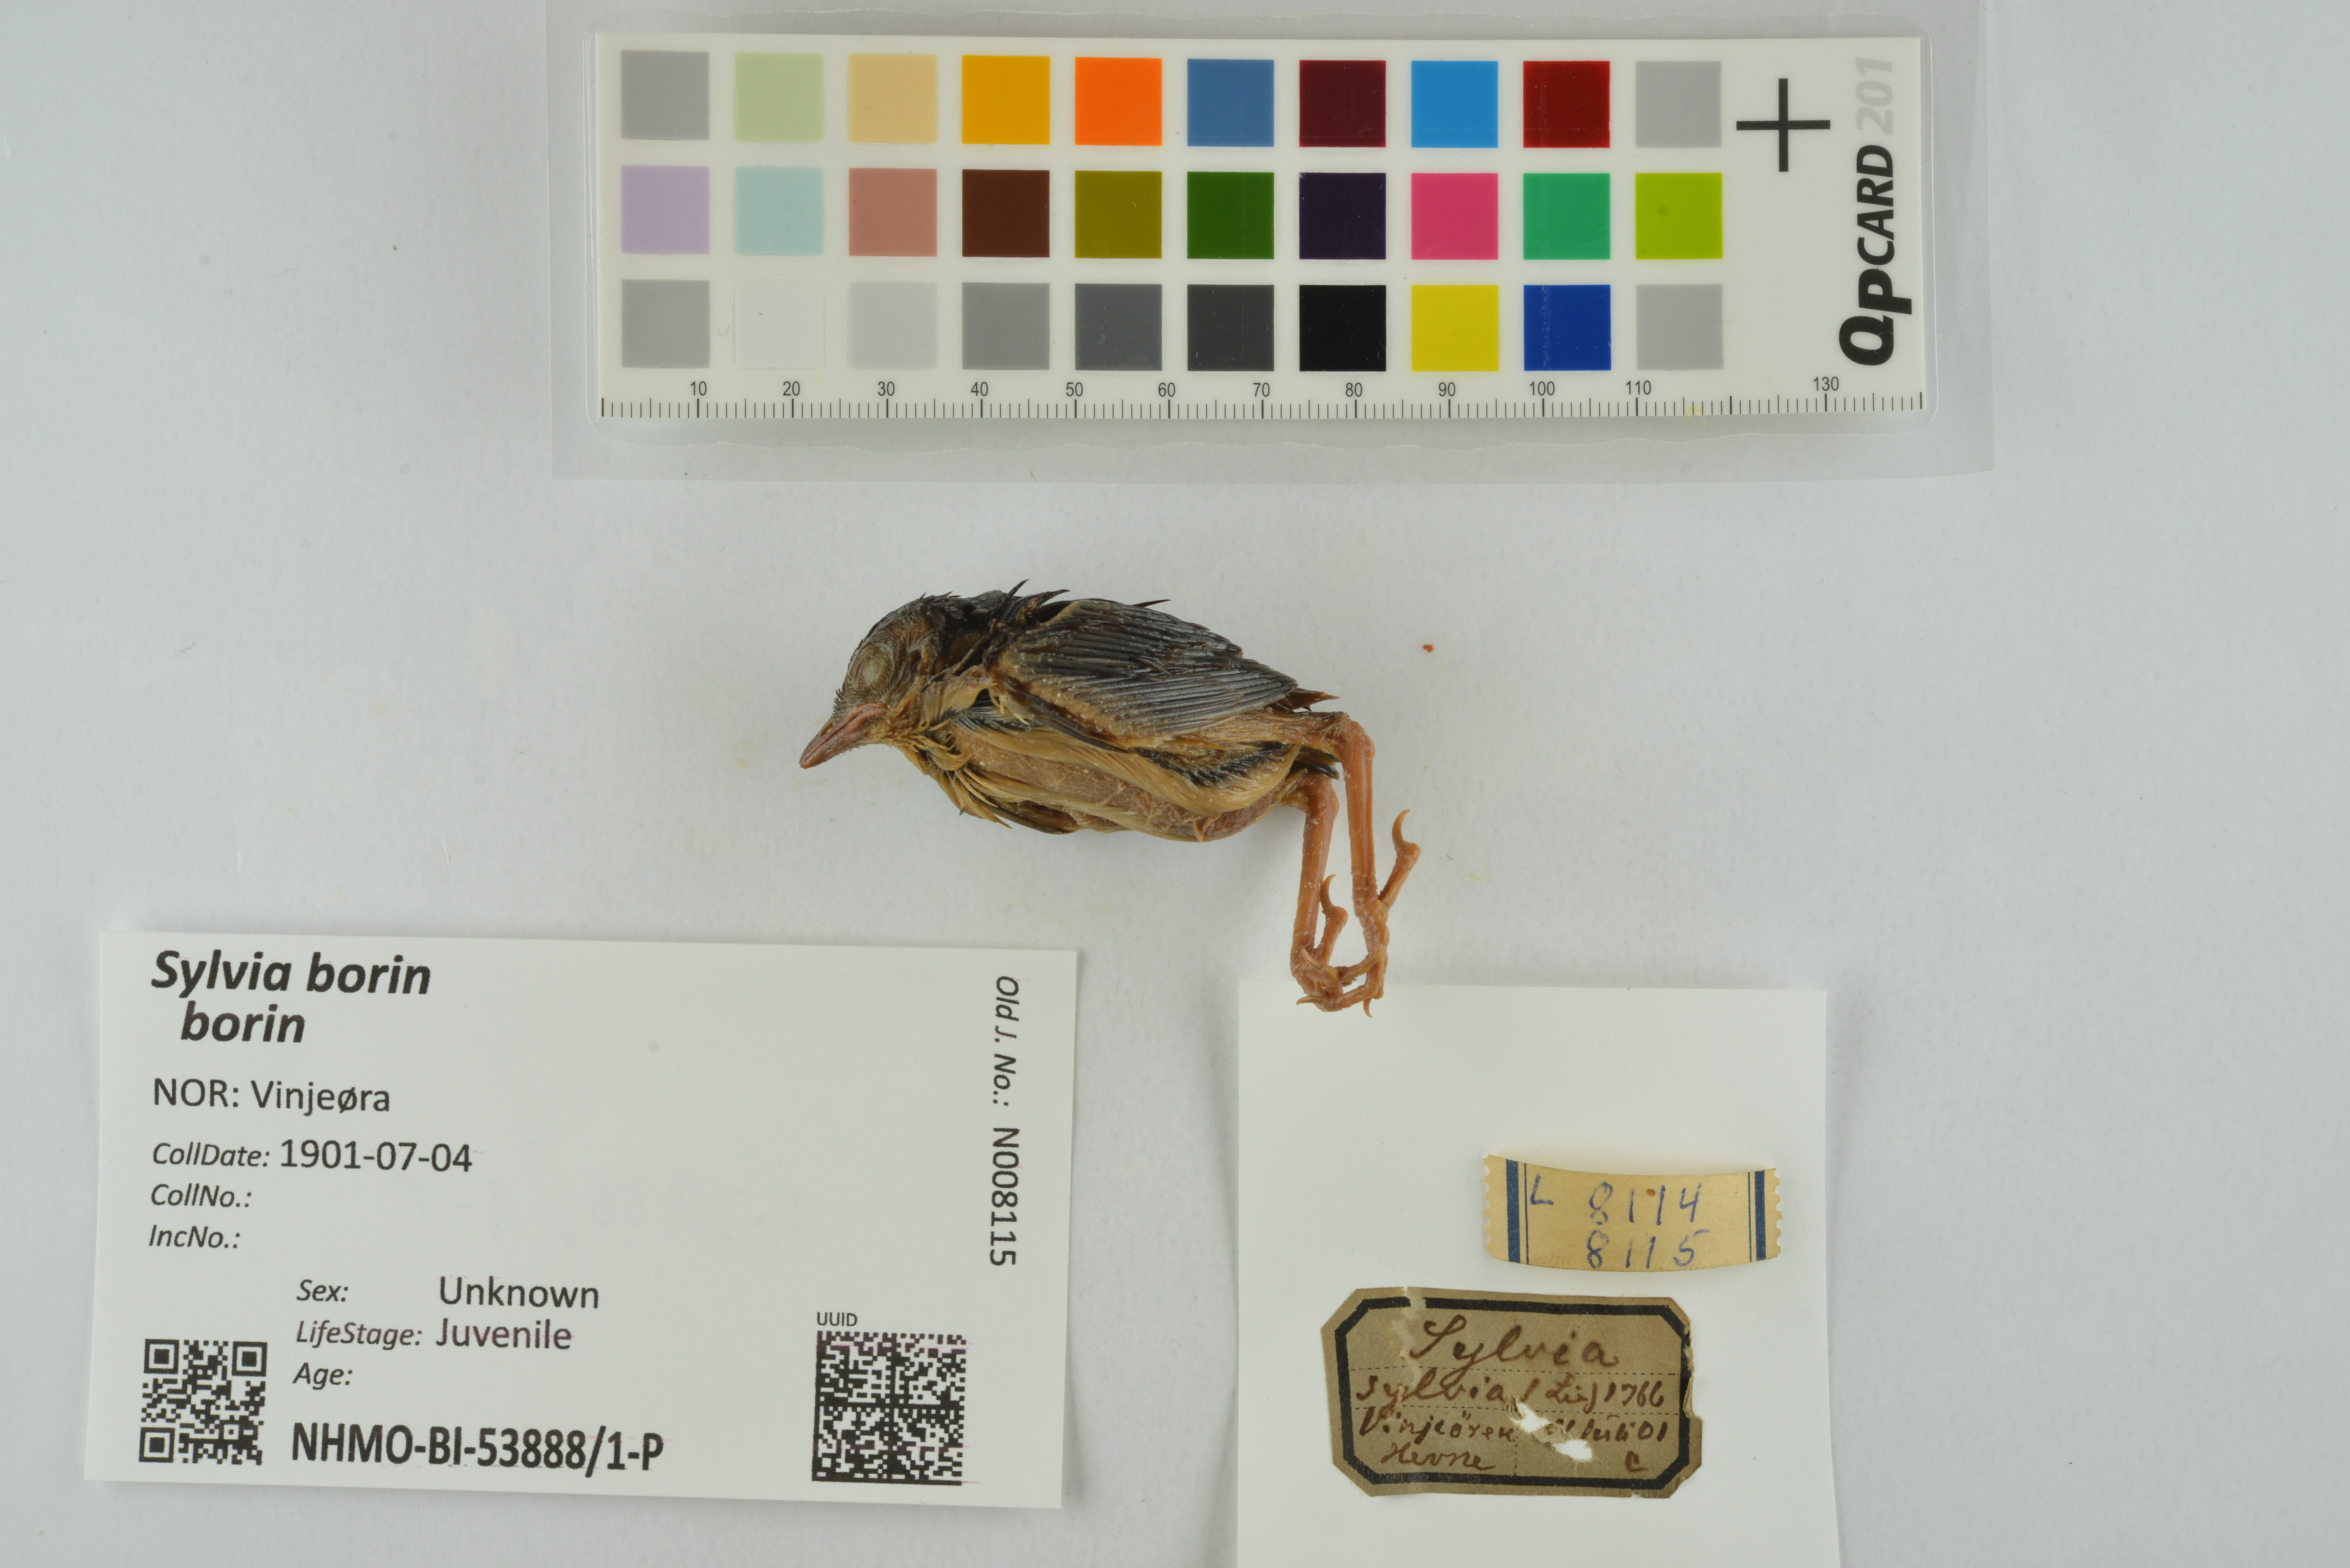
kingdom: Animalia
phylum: Chordata
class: Aves
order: Passeriformes
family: Sylviidae
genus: Sylvia
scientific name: Sylvia borin
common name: Garden warbler
